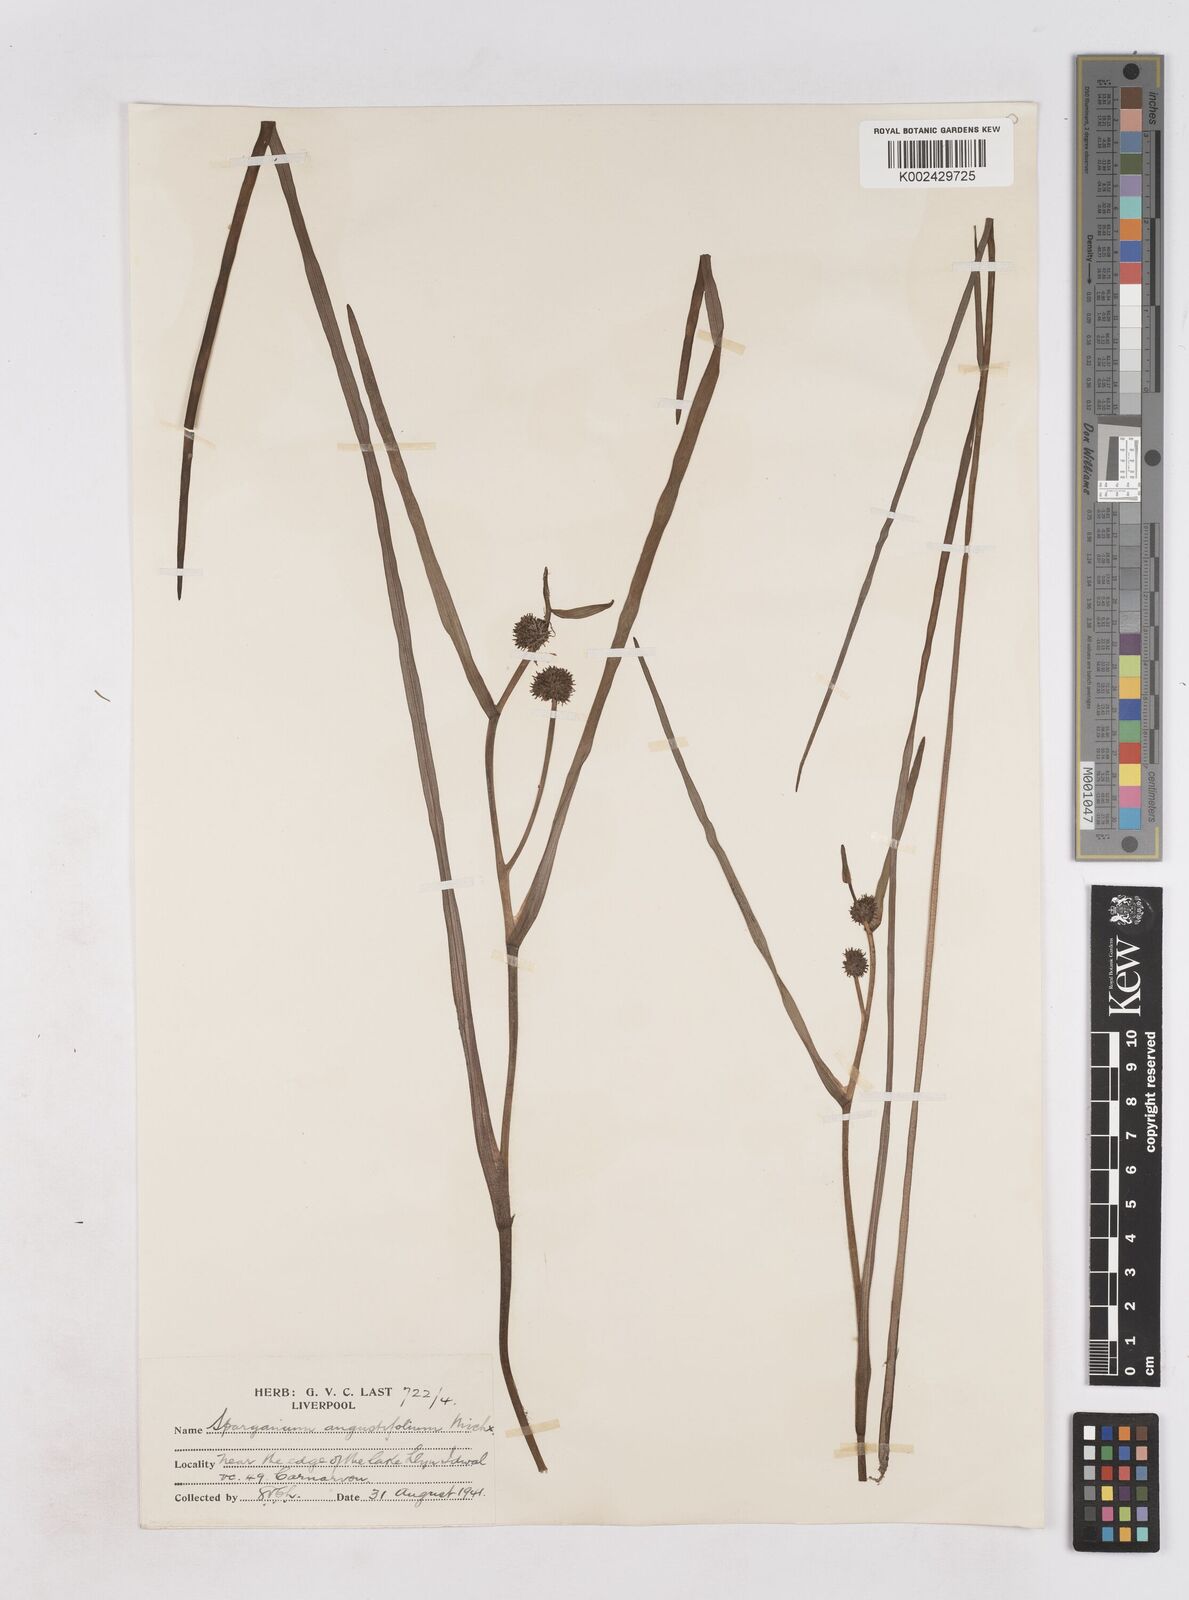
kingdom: Plantae
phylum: Tracheophyta
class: Liliopsida
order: Poales
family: Typhaceae
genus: Sparganium
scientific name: Sparganium angustifolium
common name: Floating bur-reed
